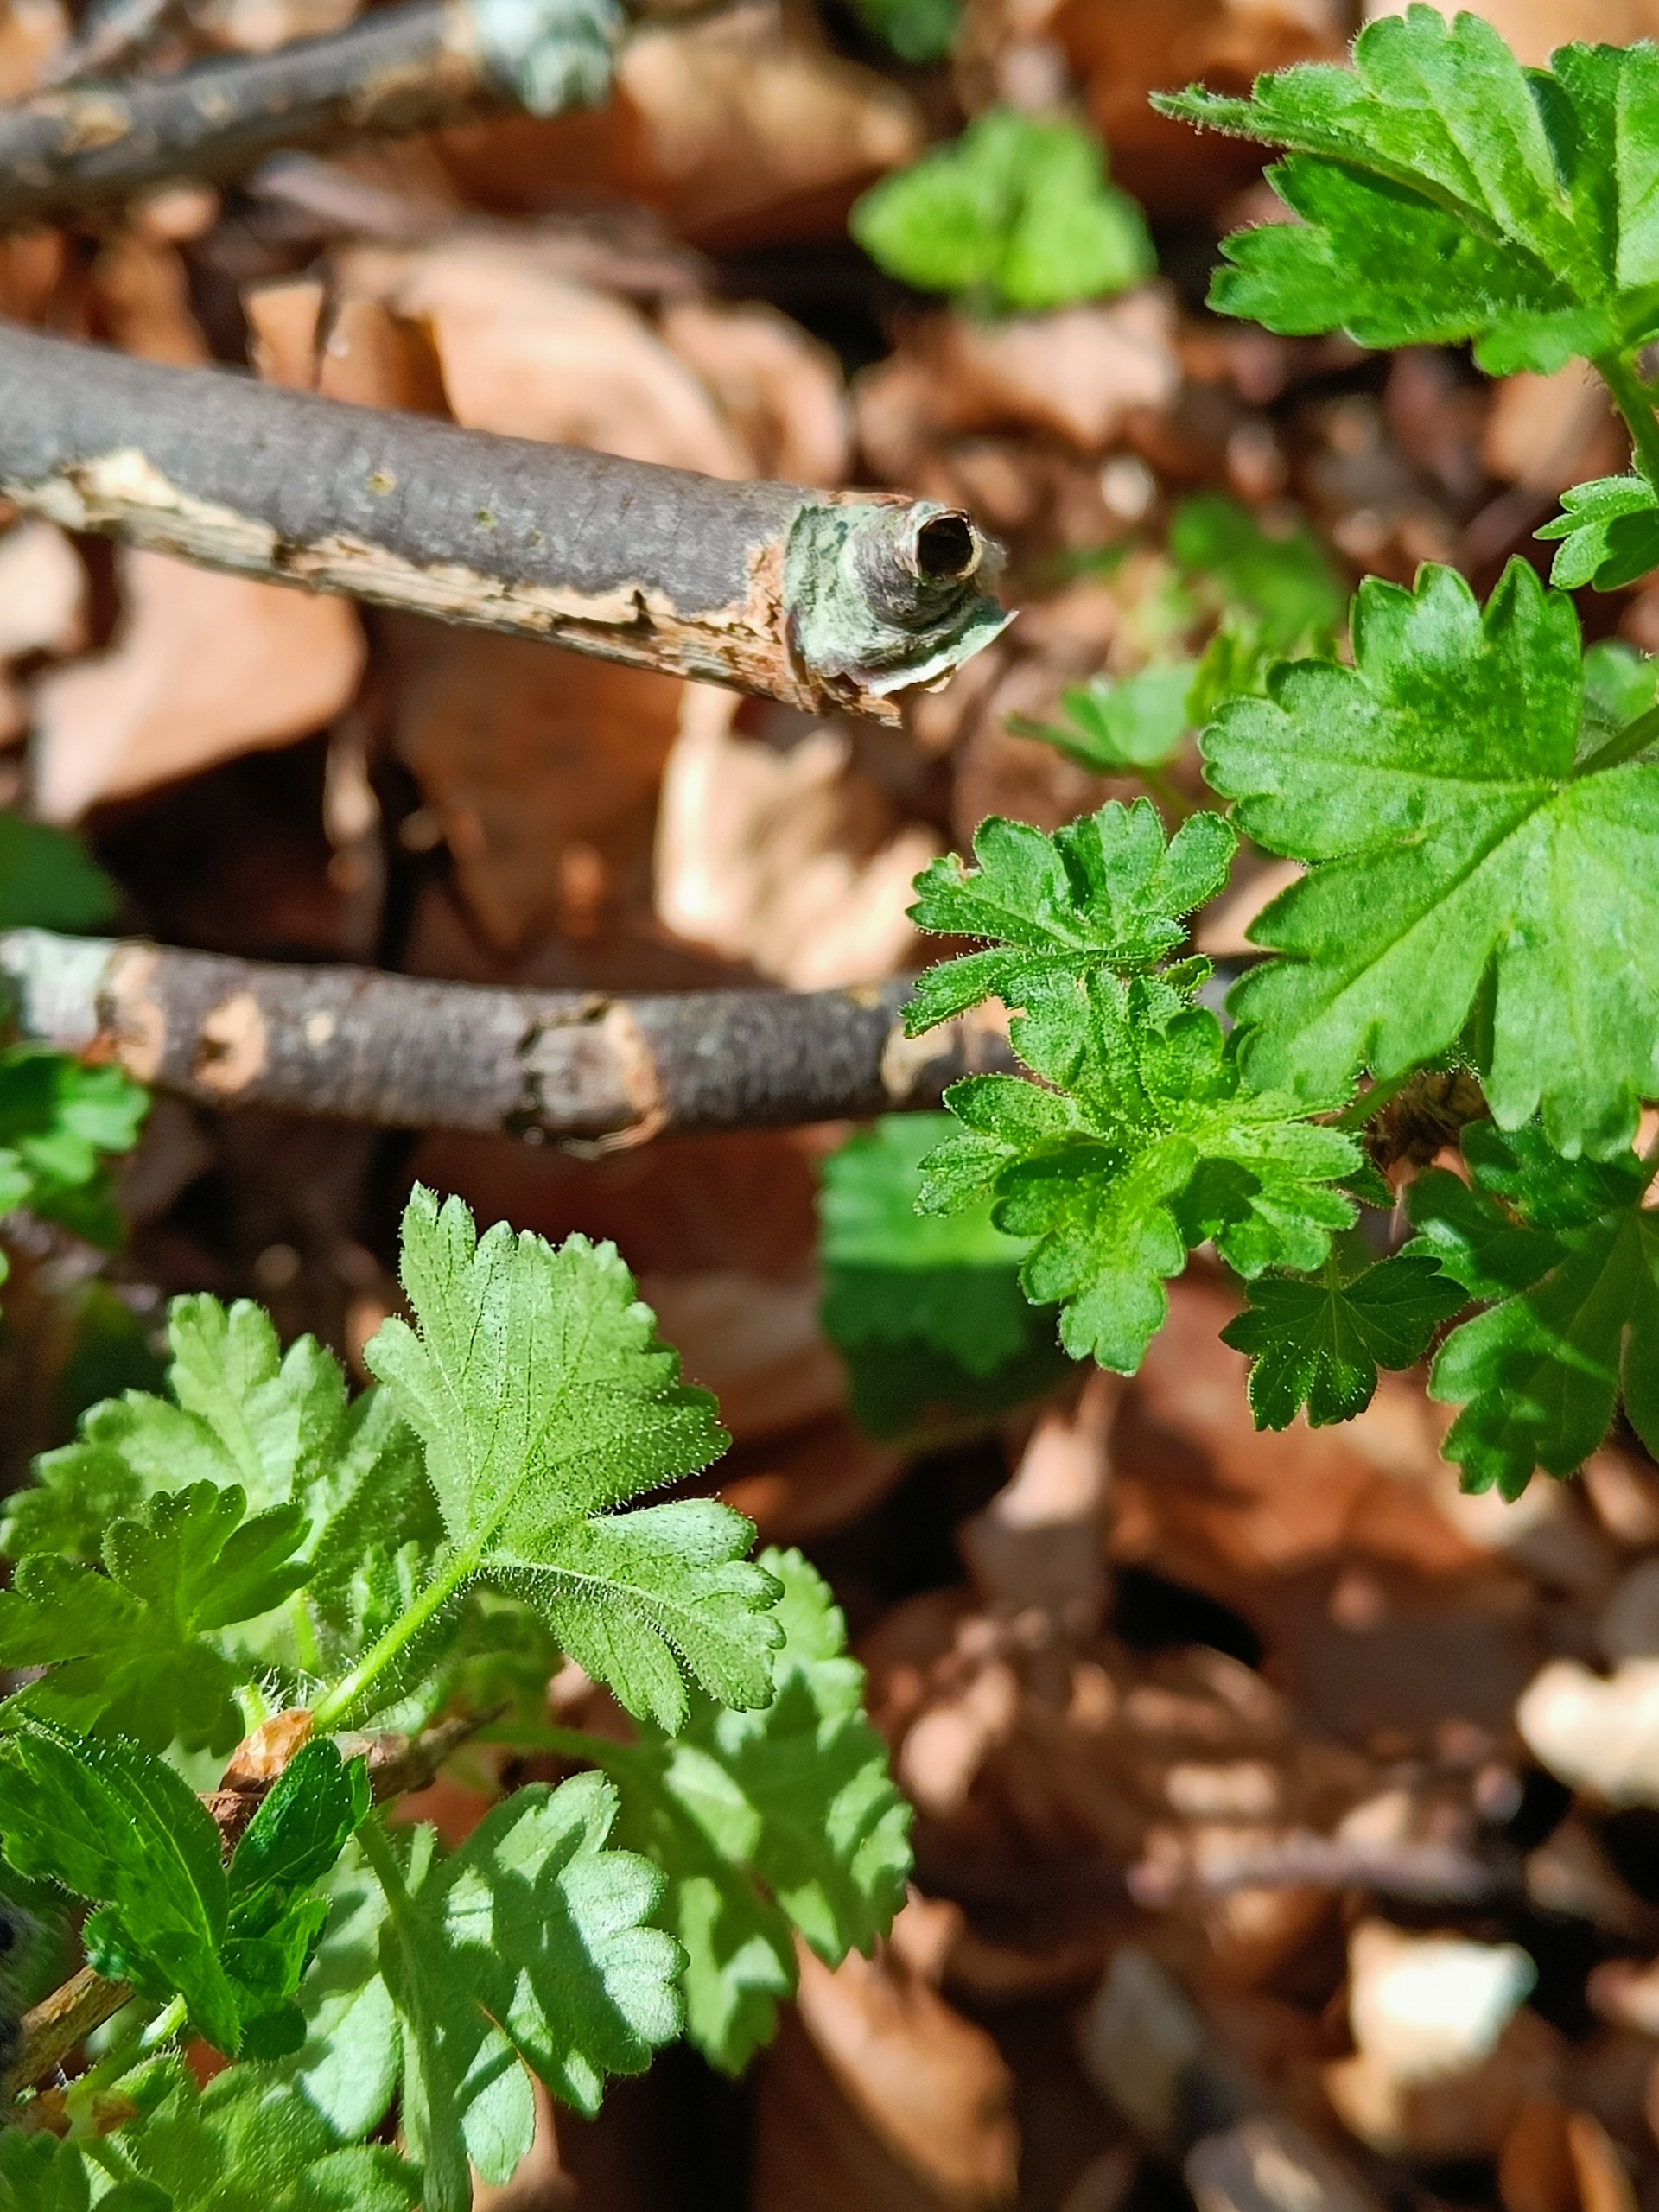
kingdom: Plantae
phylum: Tracheophyta
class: Magnoliopsida
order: Saxifragales
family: Grossulariaceae
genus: Ribes
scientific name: Ribes uva-crispa
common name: Stikkelsbær
